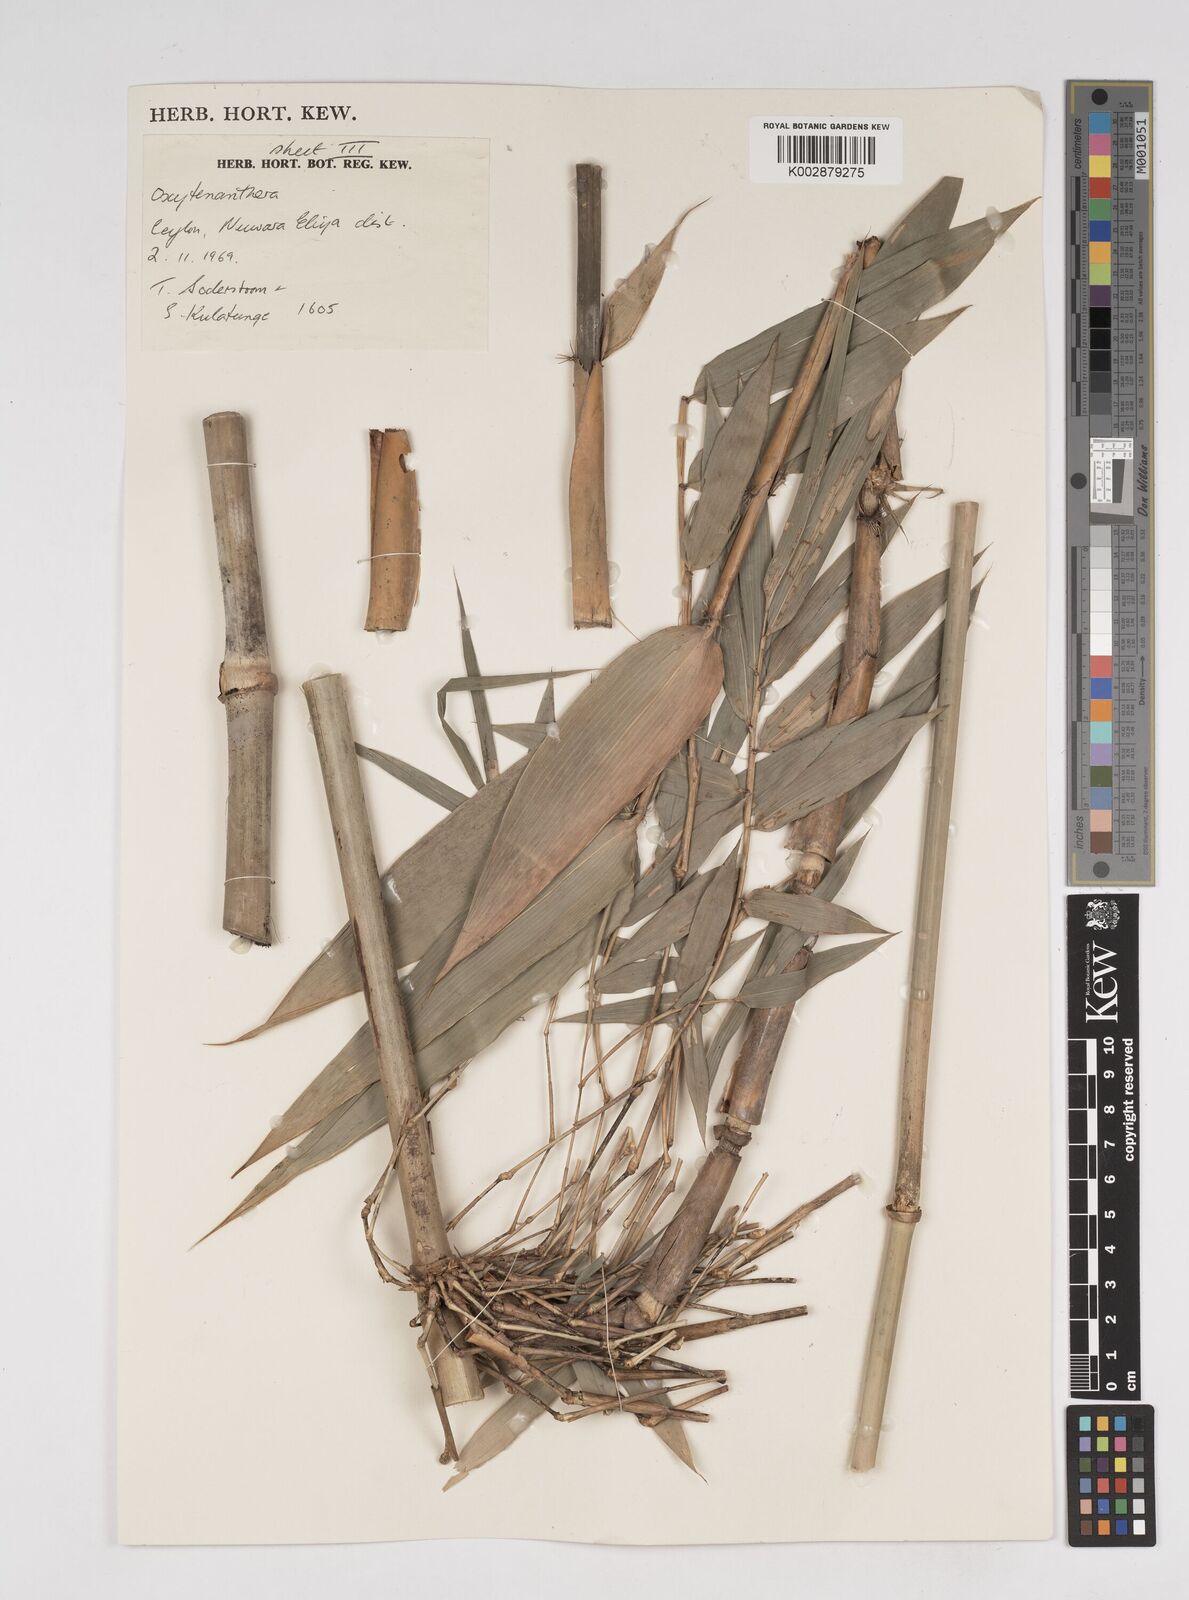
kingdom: Plantae
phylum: Tracheophyta
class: Liliopsida
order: Poales
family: Poaceae
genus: Dendrocalamus
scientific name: Dendrocalamus
